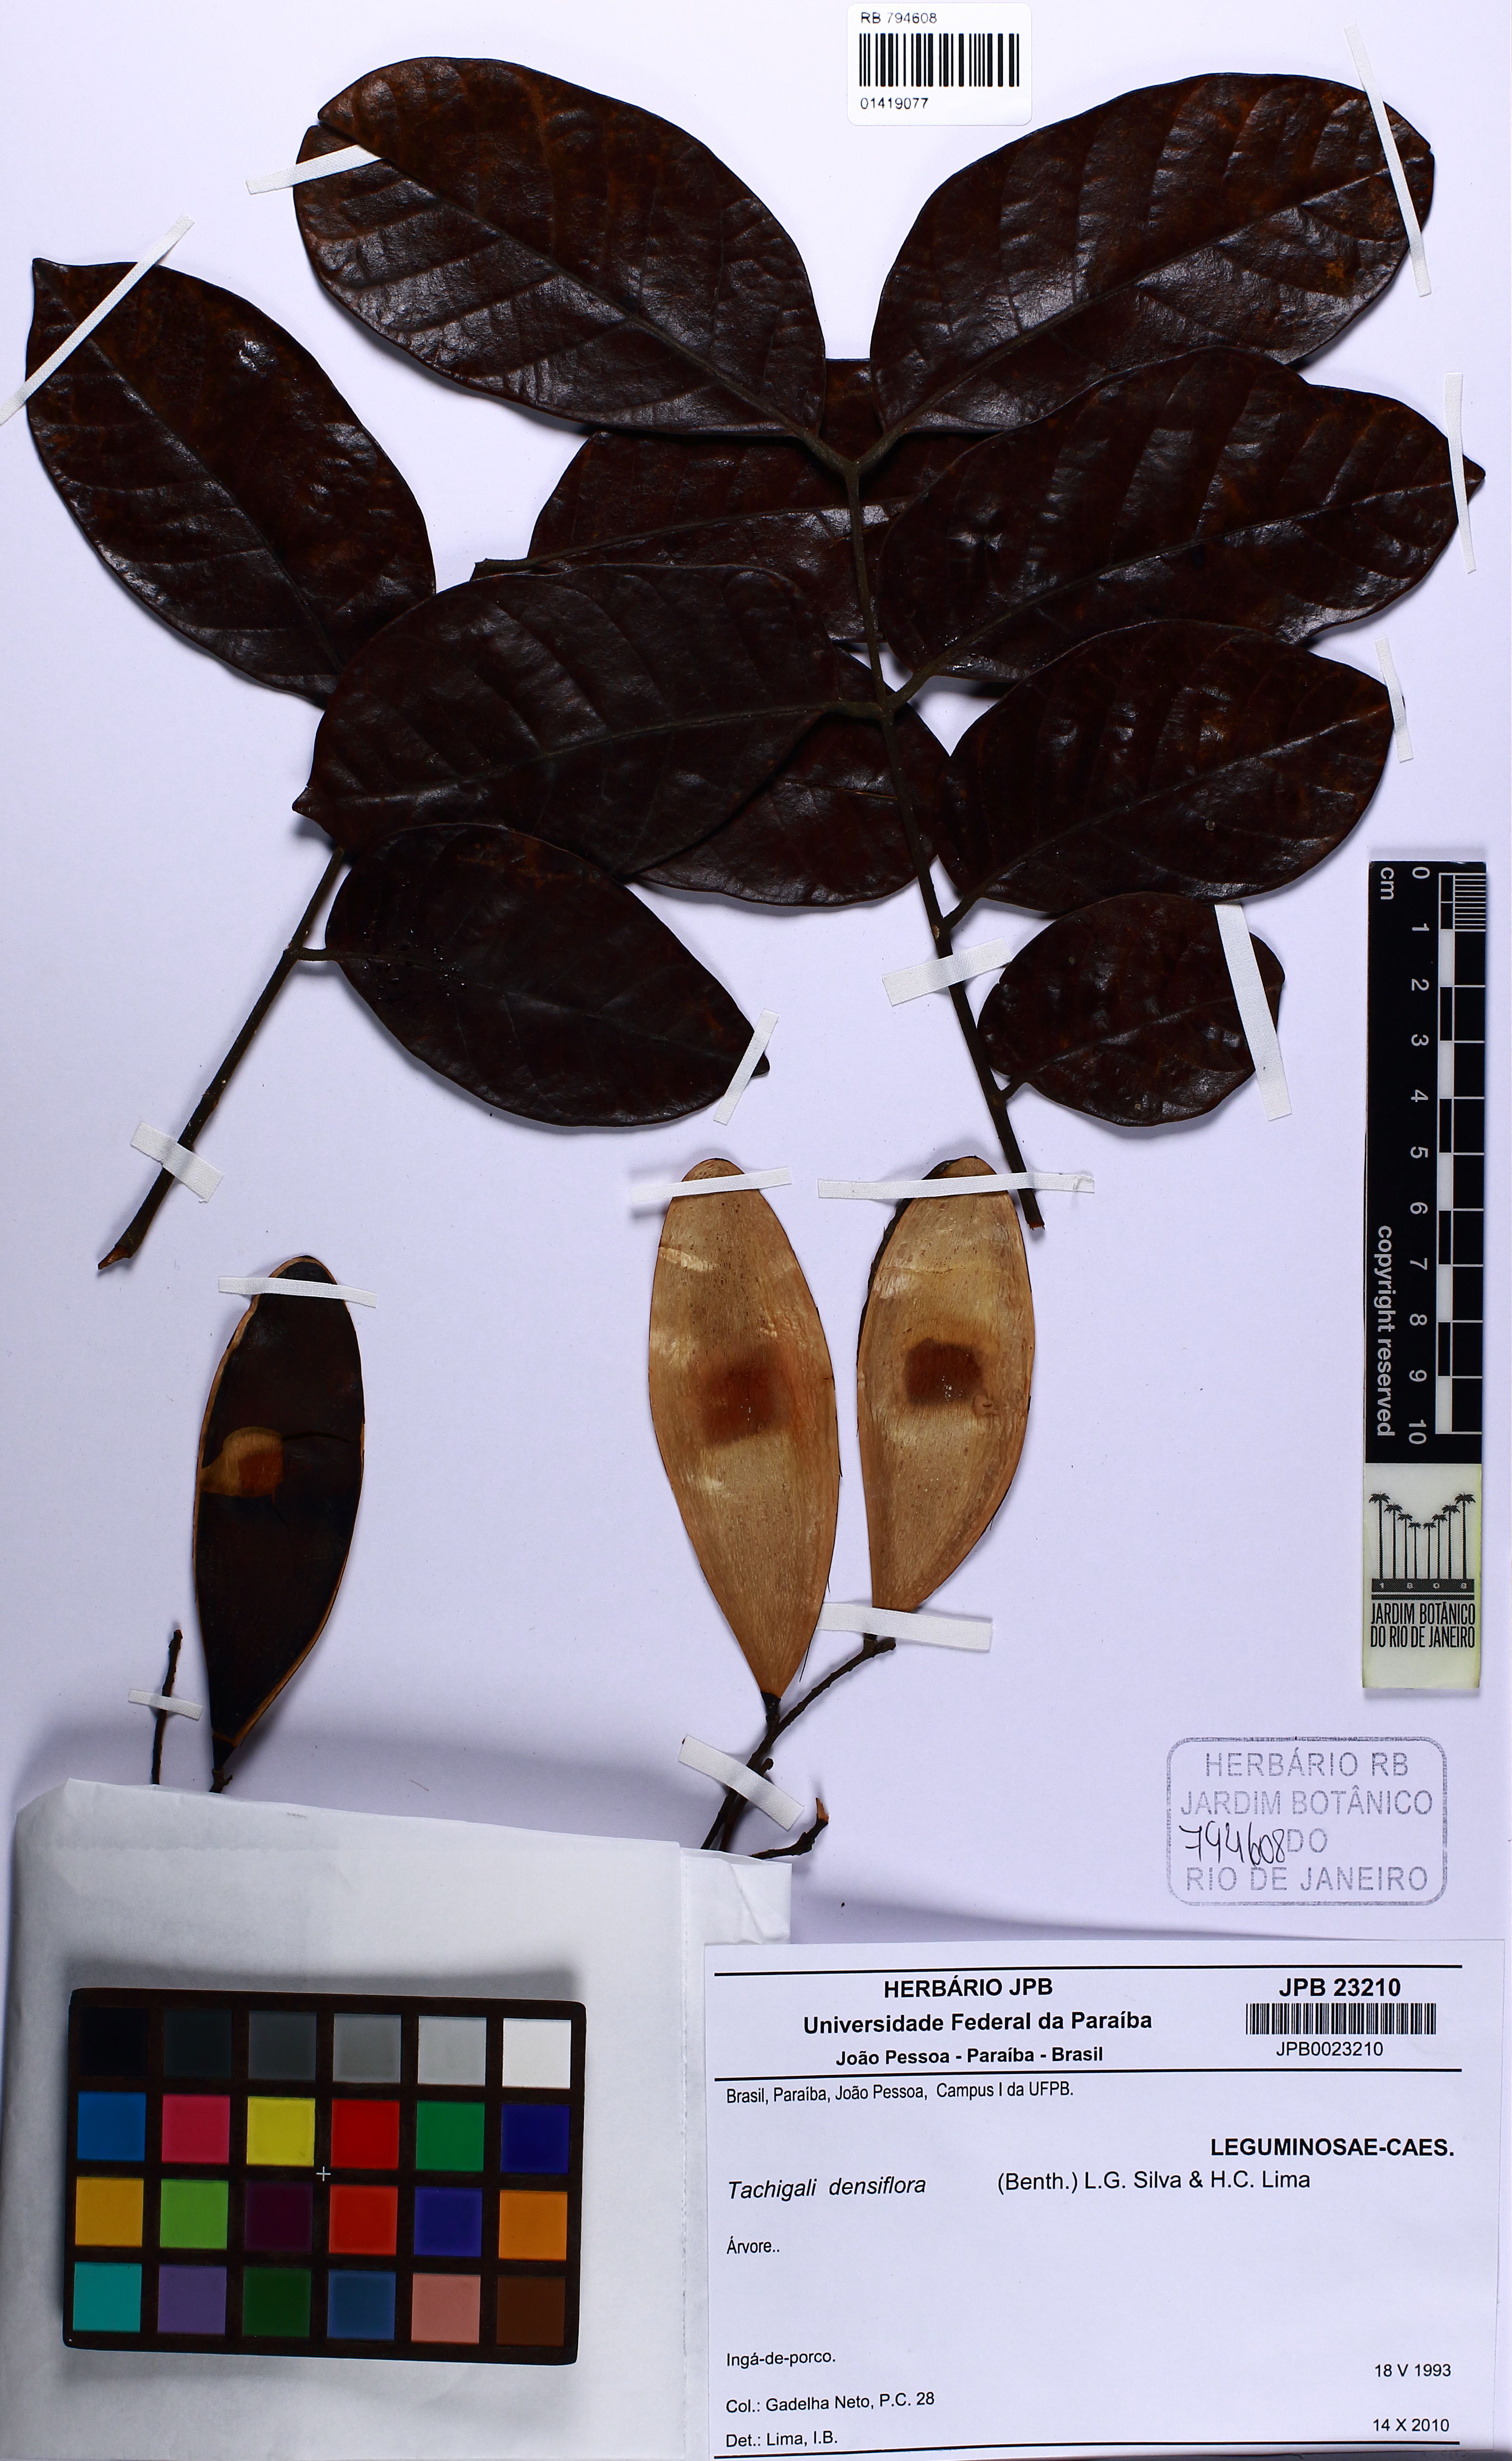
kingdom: Plantae
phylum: Tracheophyta
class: Magnoliopsida
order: Fabales
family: Fabaceae
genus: Tachigali
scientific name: Tachigali densiflora
